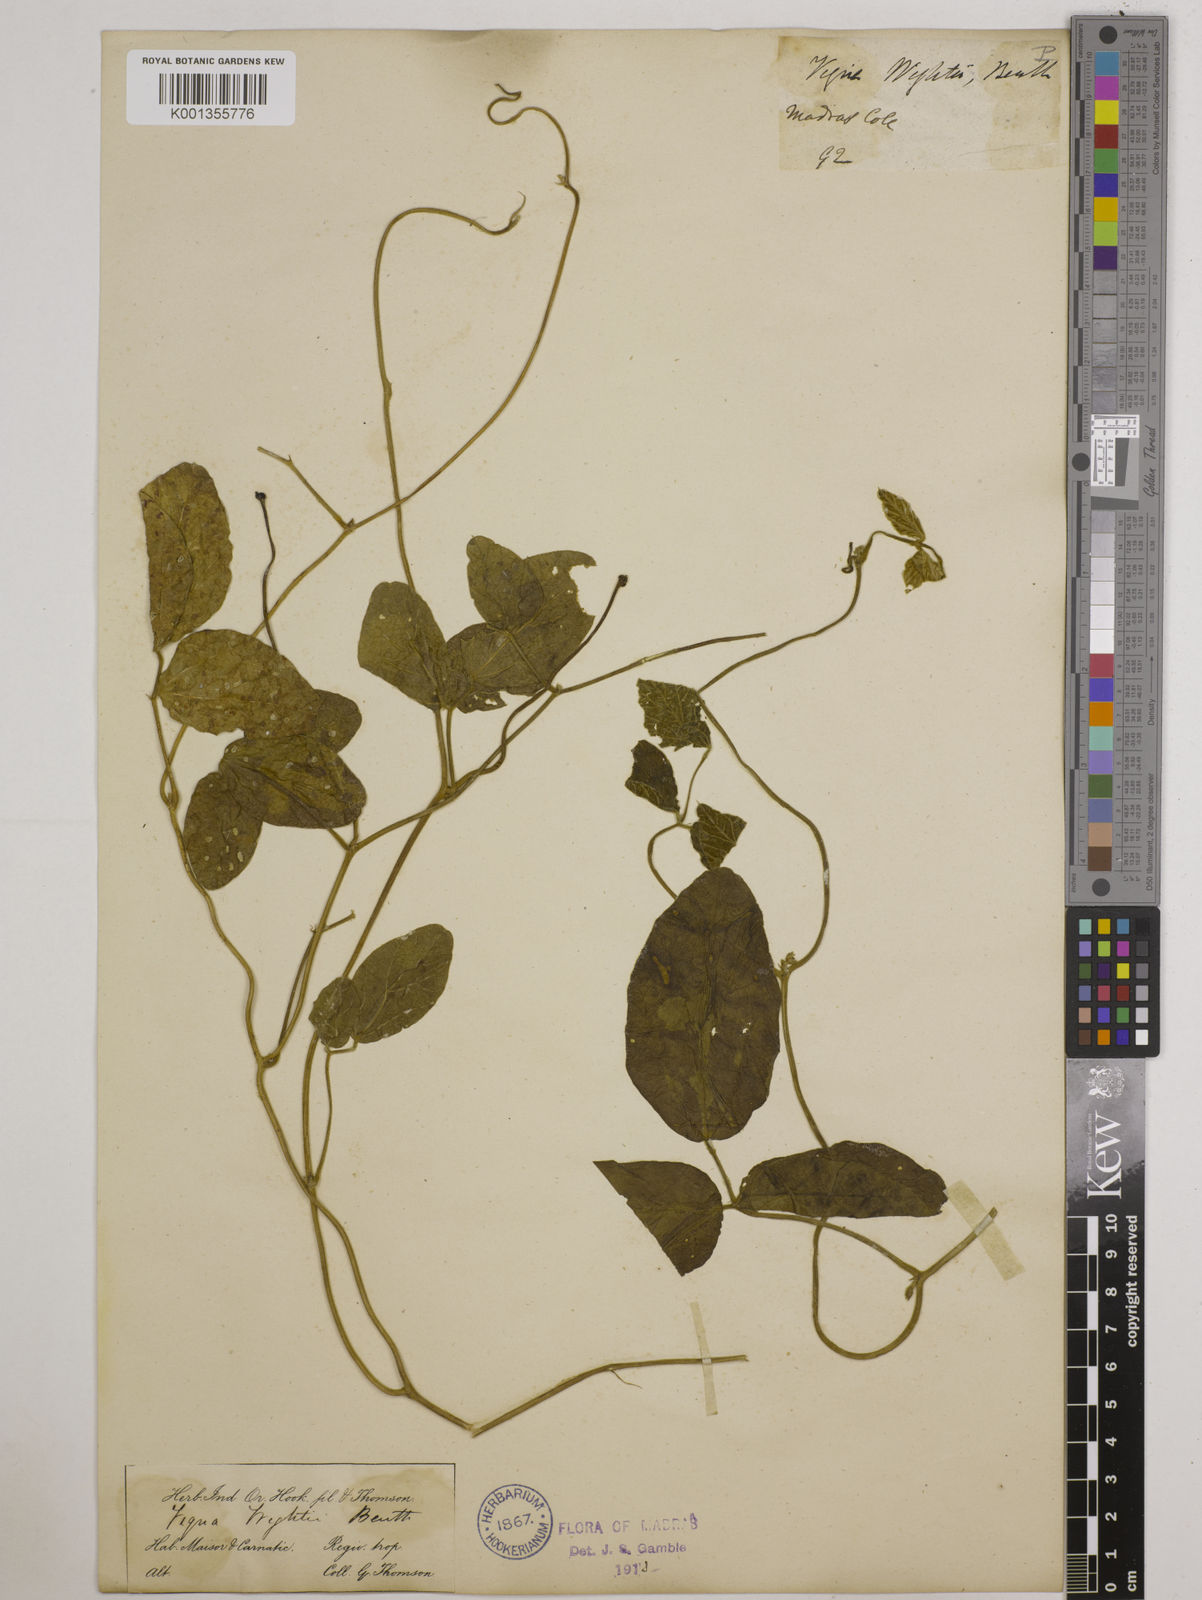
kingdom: Plantae
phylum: Tracheophyta
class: Magnoliopsida
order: Fabales
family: Fabaceae
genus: Vigna
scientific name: Vigna vexillata
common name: Zombi pea
